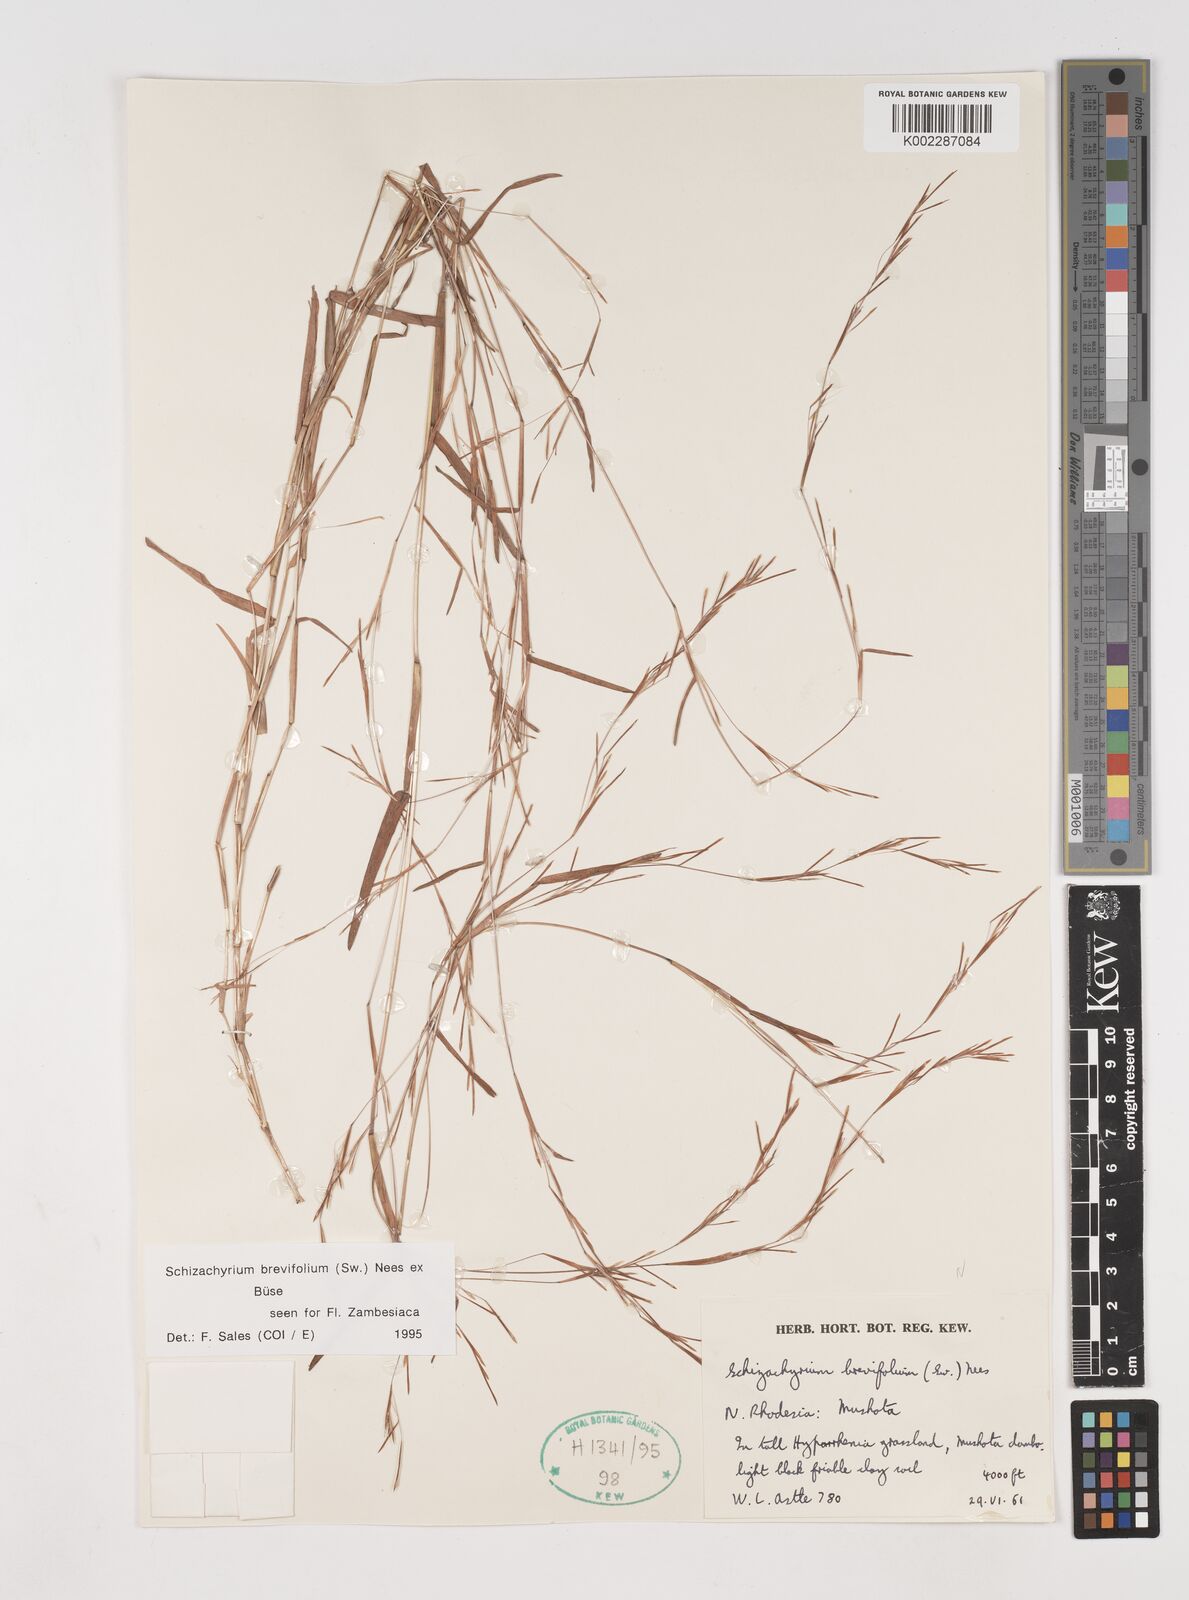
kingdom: Plantae
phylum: Tracheophyta
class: Liliopsida
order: Poales
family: Poaceae
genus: Schizachyrium
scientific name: Schizachyrium brevifolium
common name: Serillo dulce
